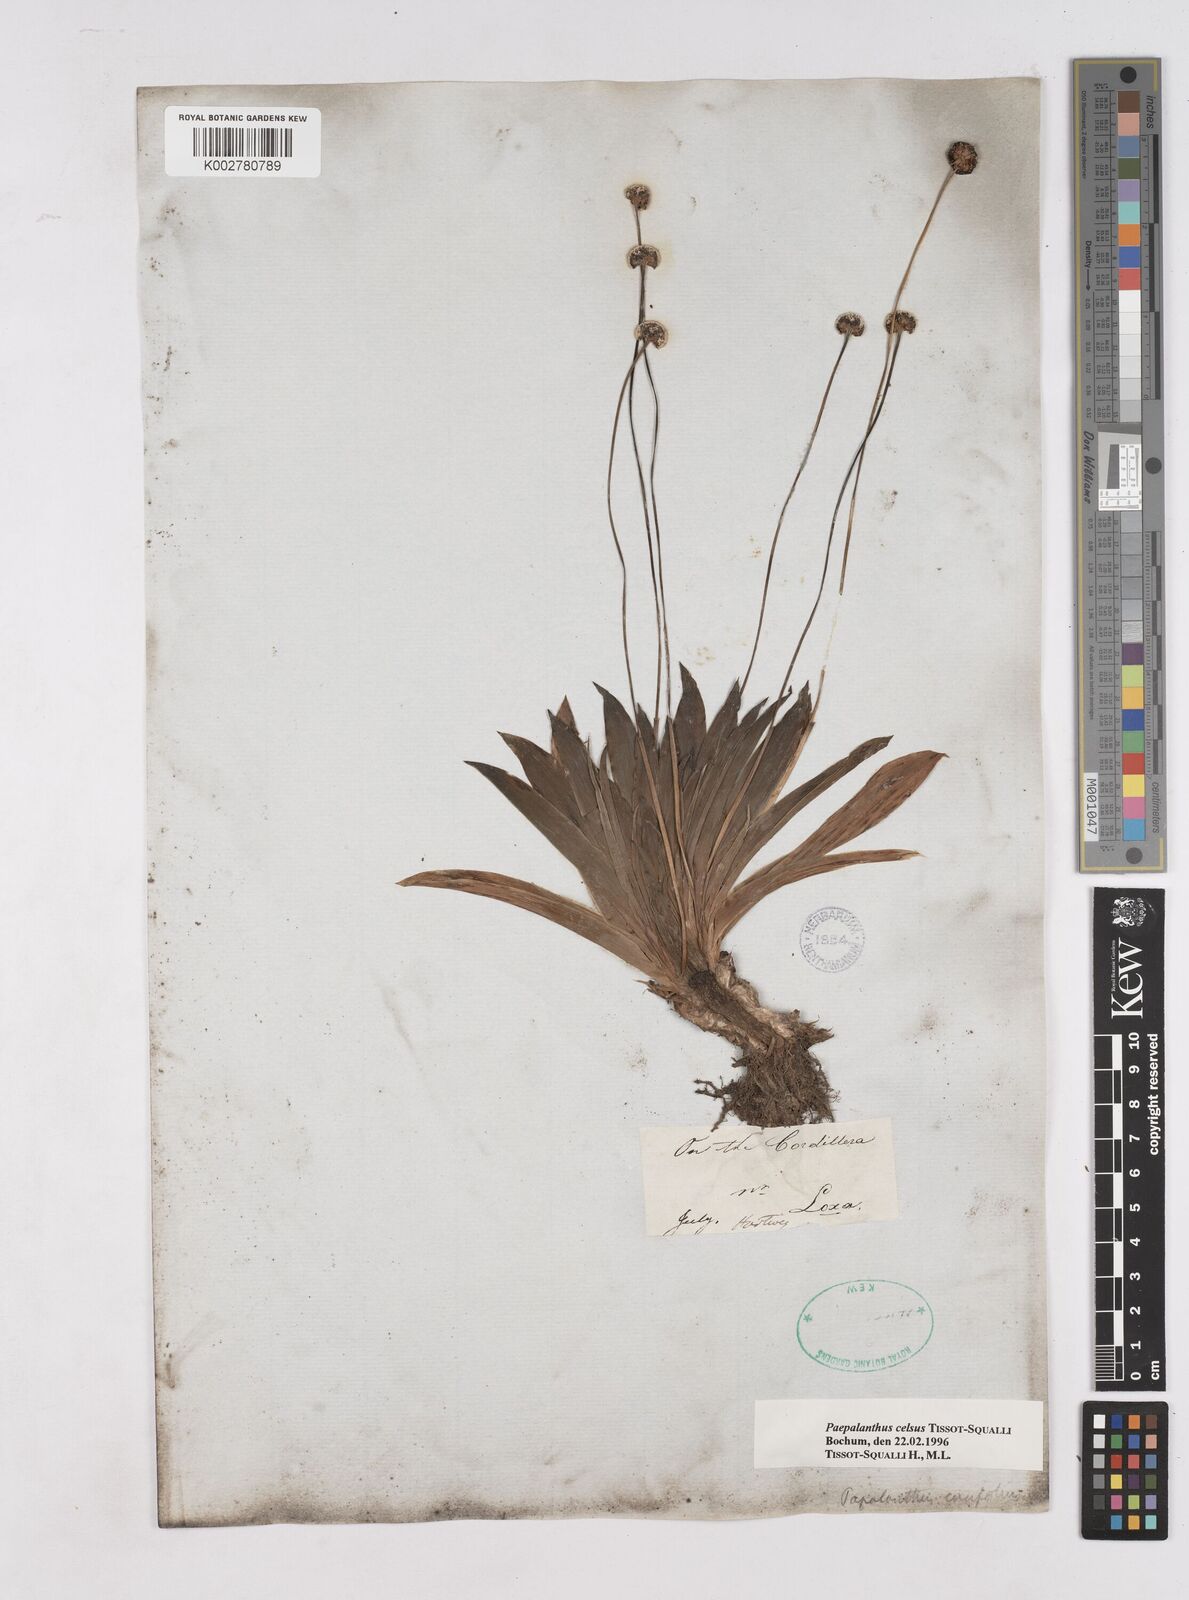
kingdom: Plantae
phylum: Tracheophyta
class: Liliopsida
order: Poales
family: Eriocaulaceae
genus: Paepalanthus
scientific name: Paepalanthus celsus
